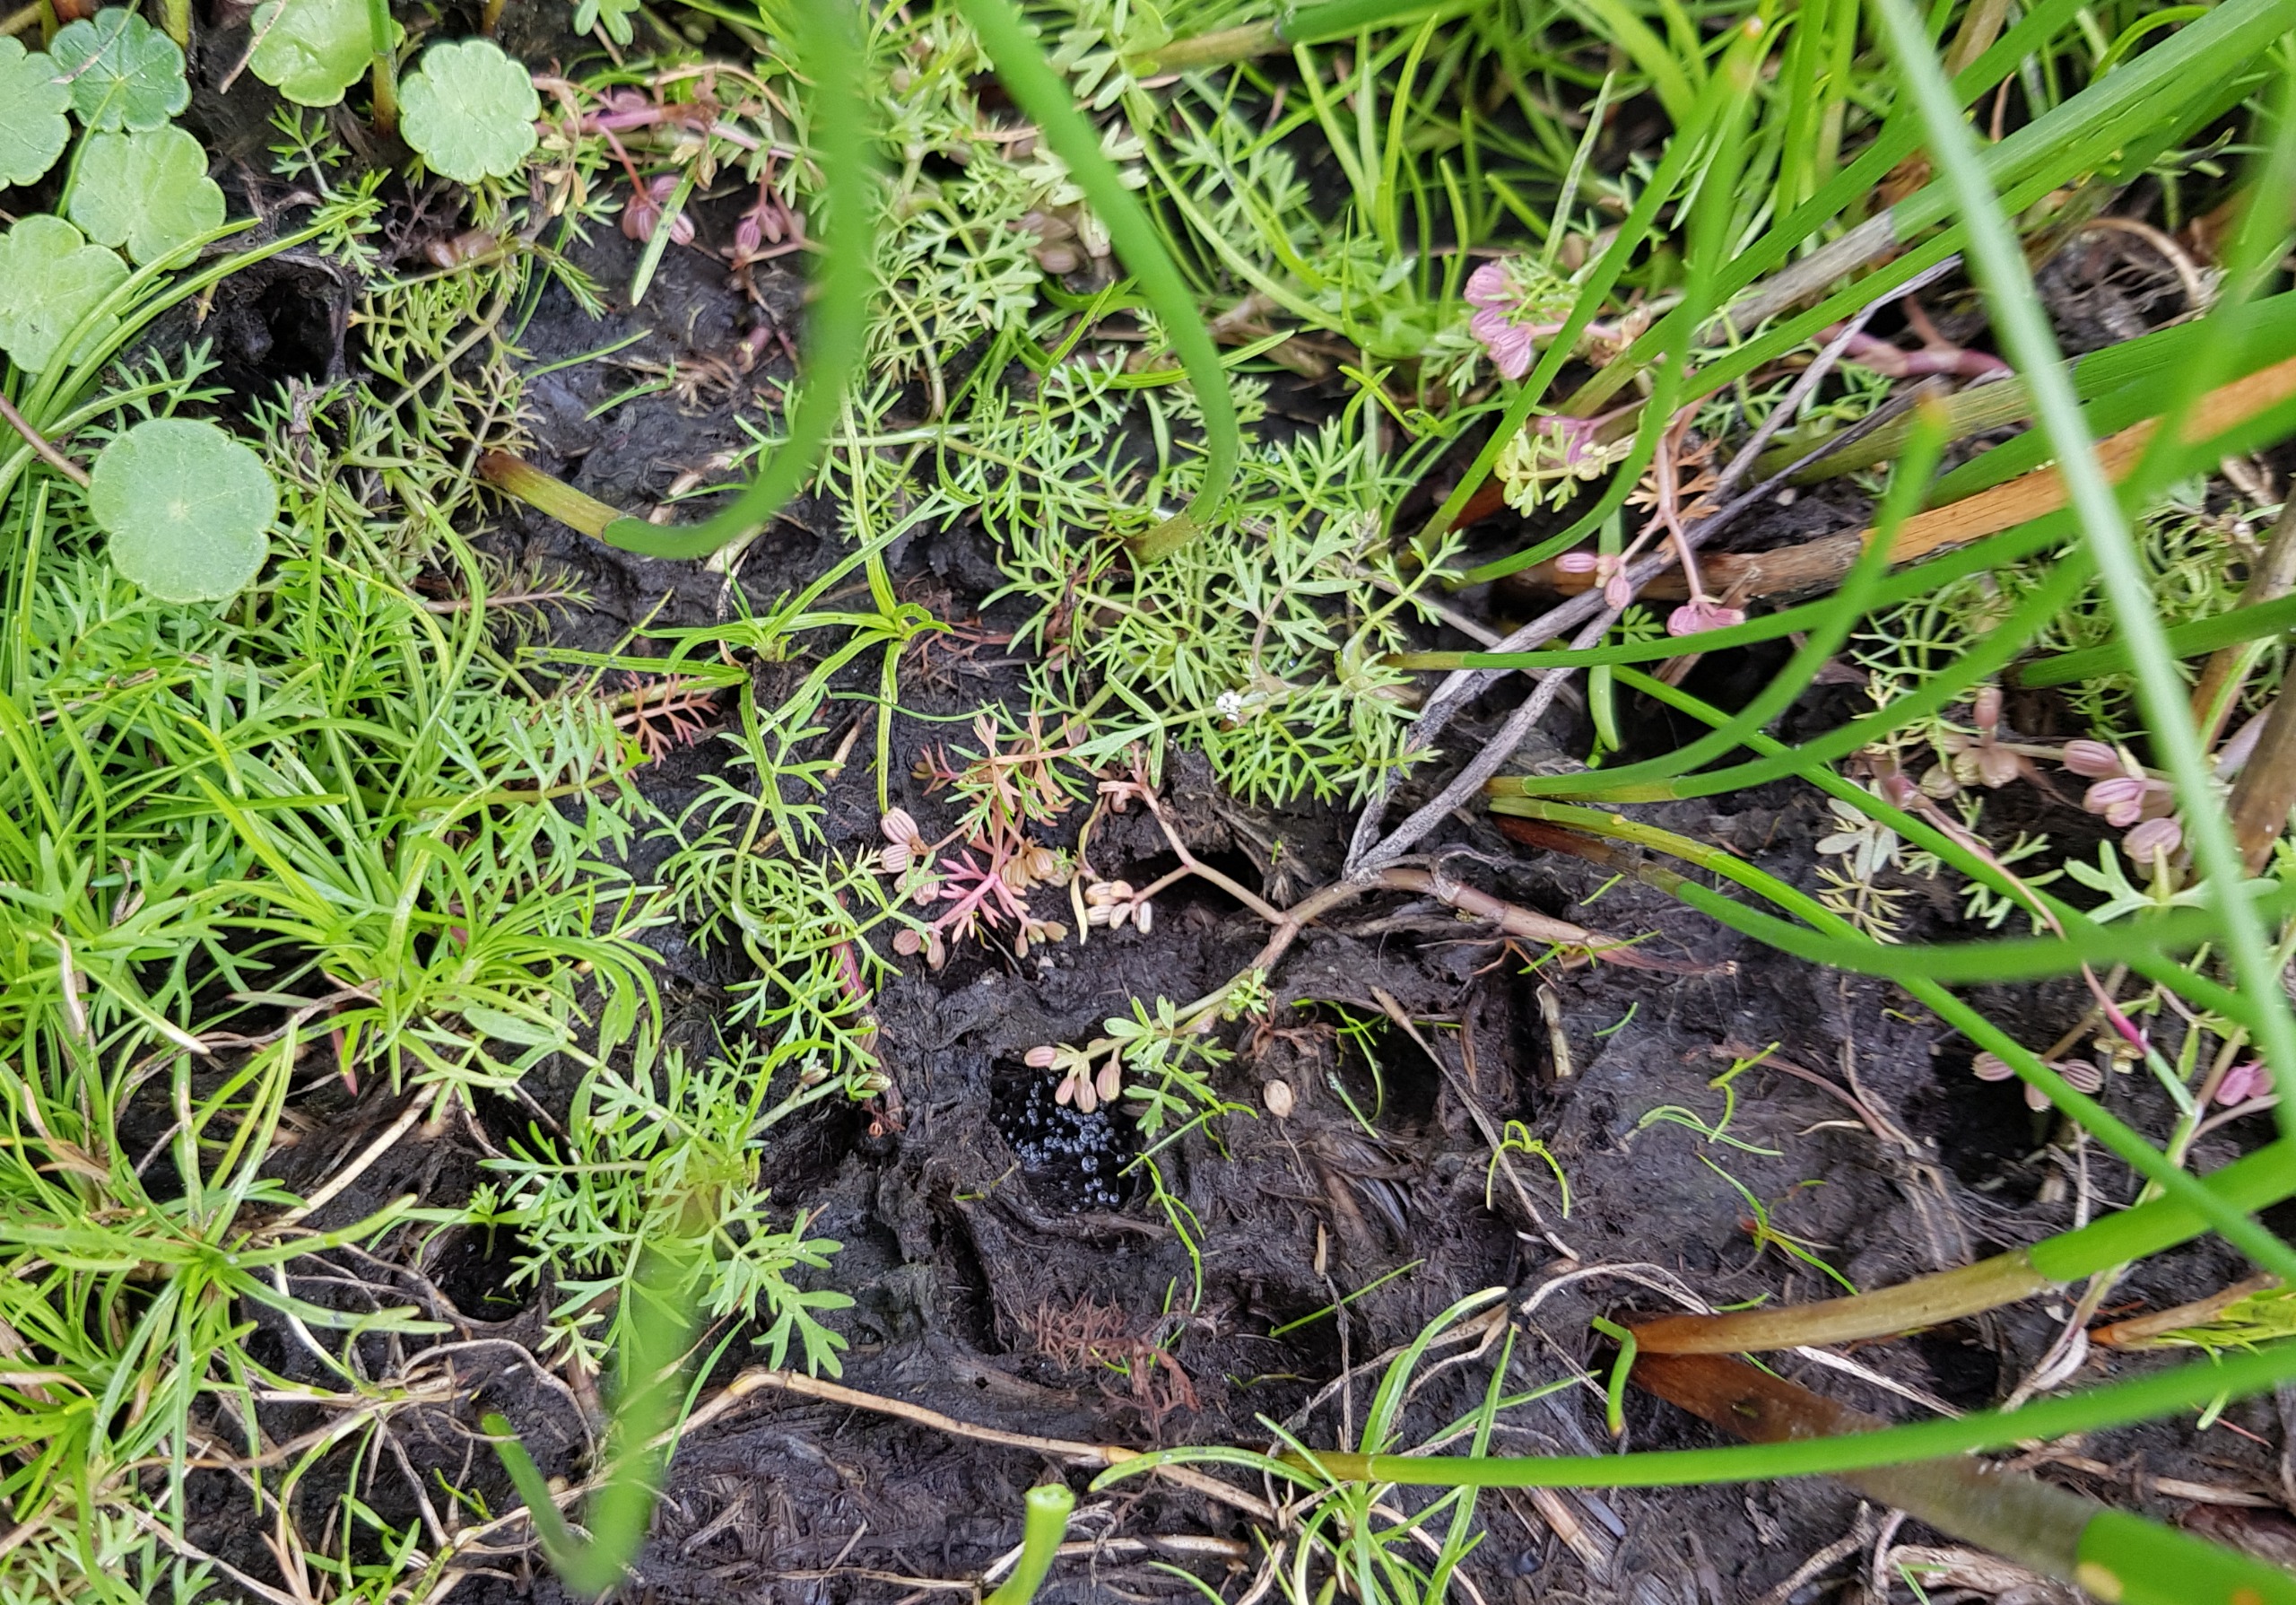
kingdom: Plantae
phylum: Tracheophyta
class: Magnoliopsida
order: Apiales
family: Apiaceae
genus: Helosciadium
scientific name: Helosciadium inundatum
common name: Svømmende sumpskærm
